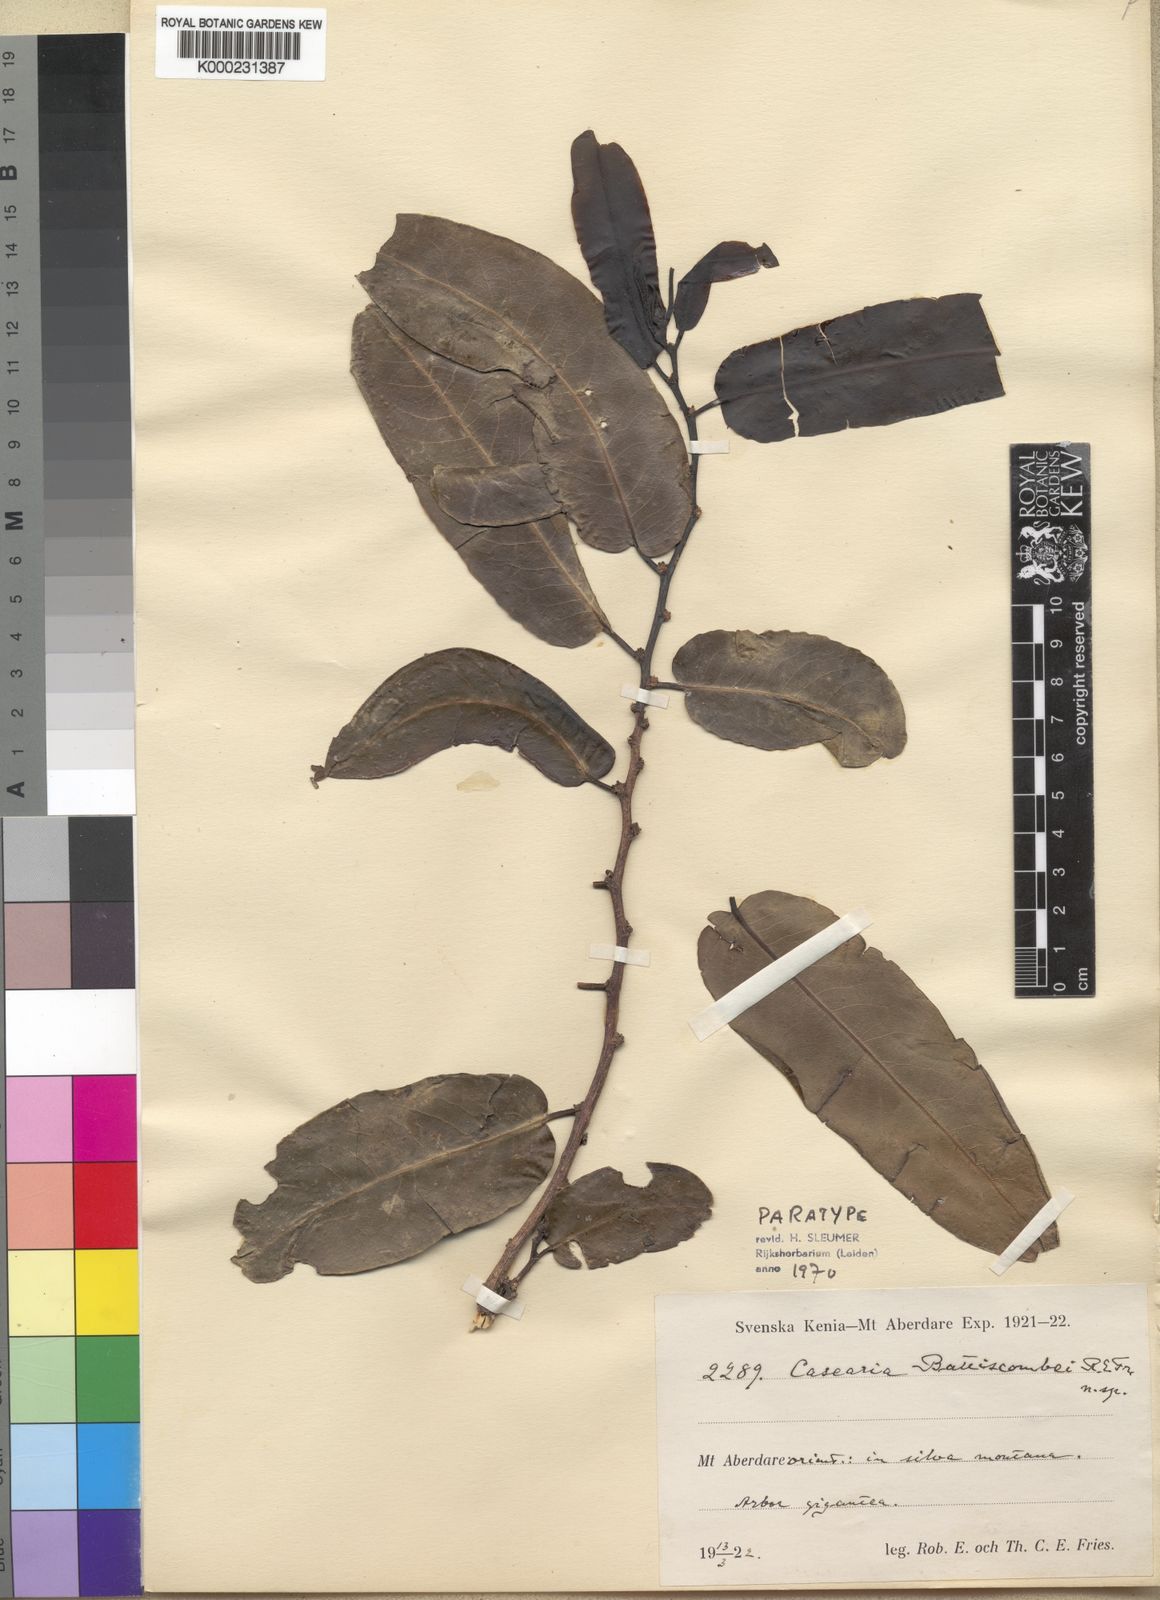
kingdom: Plantae
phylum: Tracheophyta
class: Magnoliopsida
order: Malpighiales
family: Salicaceae
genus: Casearia
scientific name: Casearia battiscombei
